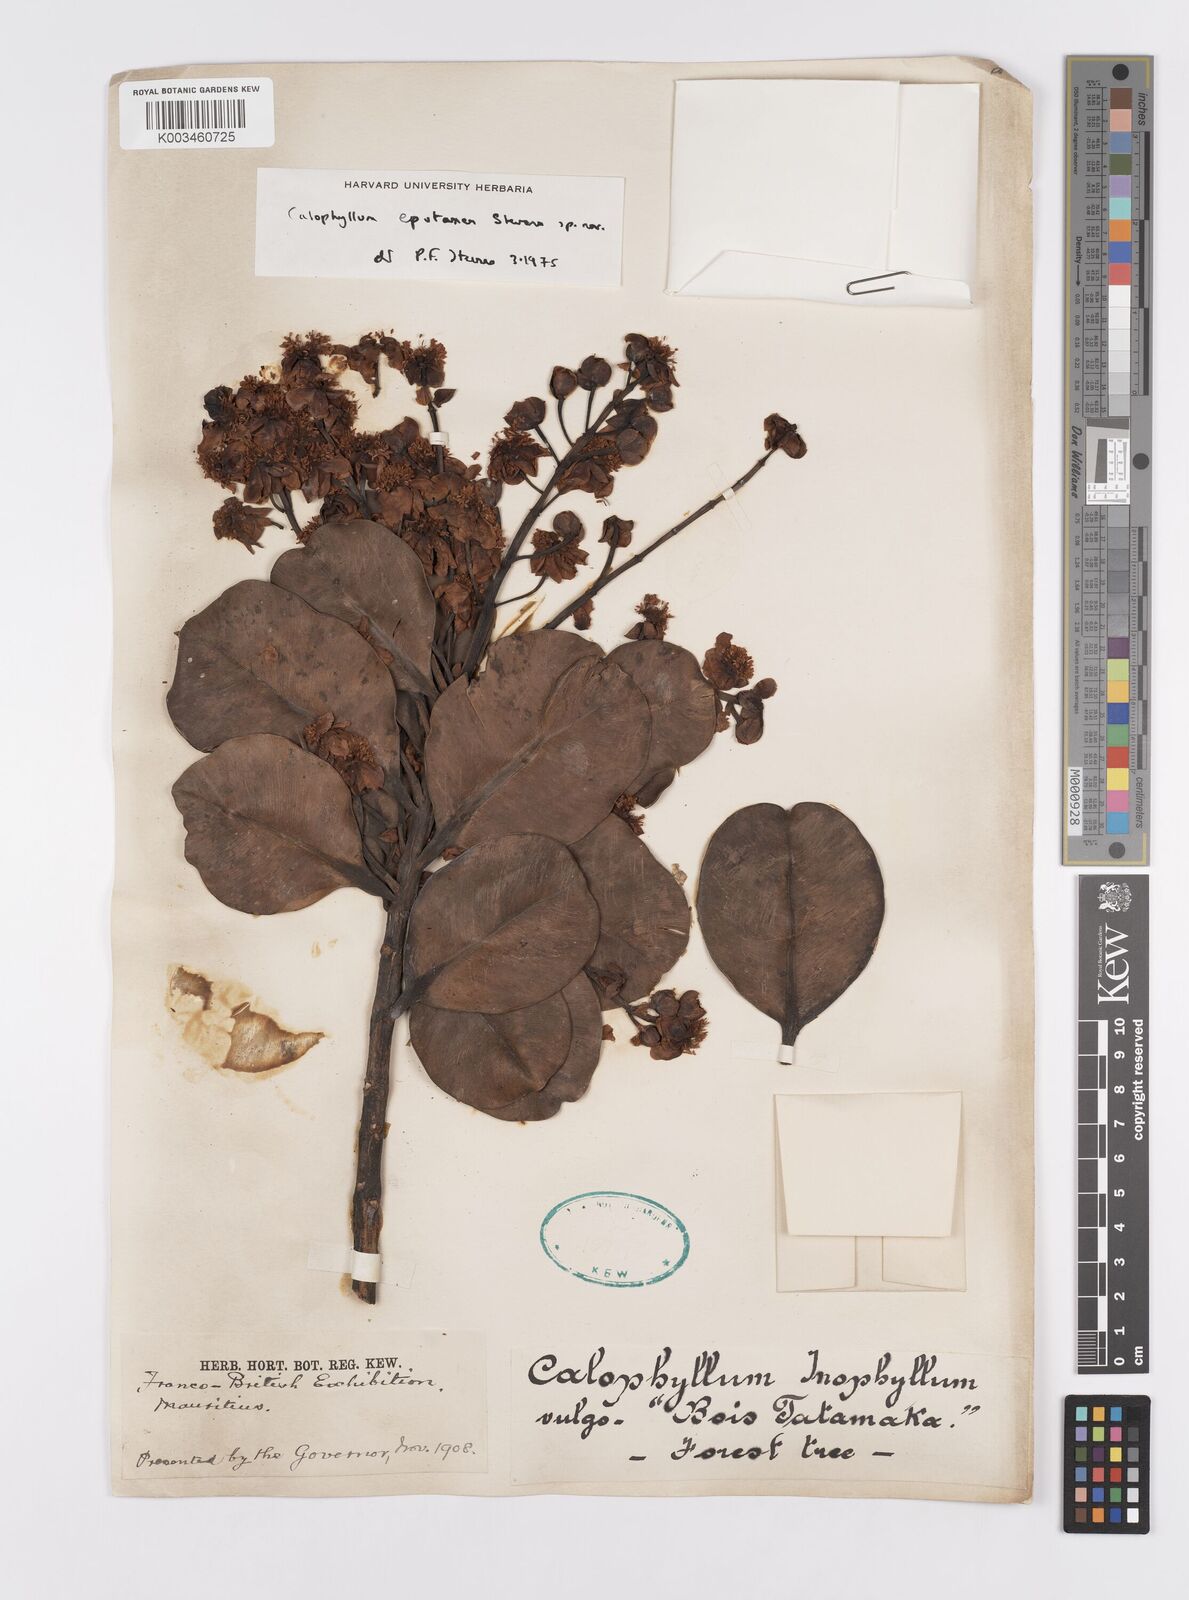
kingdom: Plantae
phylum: Tracheophyta
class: Magnoliopsida
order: Malpighiales
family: Calophyllaceae
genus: Calophyllum
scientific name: Calophyllum eputamen
